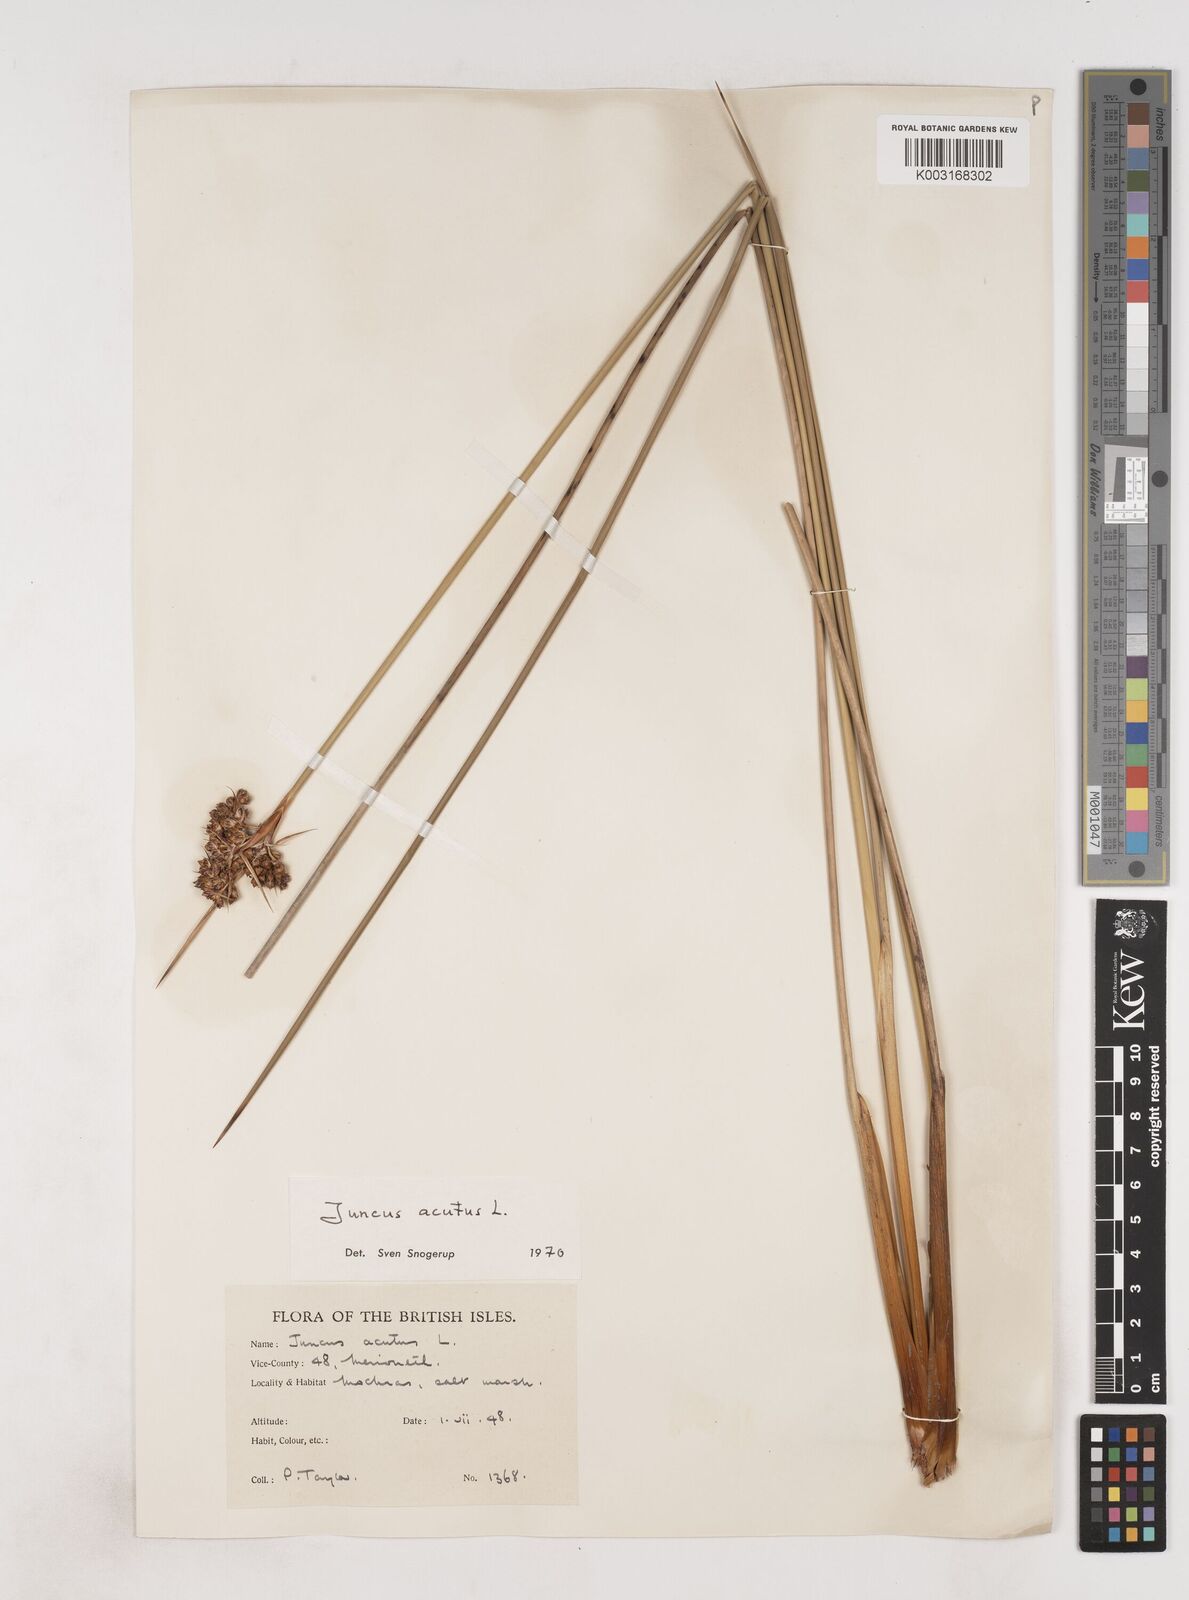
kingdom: Plantae
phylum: Tracheophyta
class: Liliopsida
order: Poales
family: Juncaceae
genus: Juncus
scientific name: Juncus acutus
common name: Sharp rush
